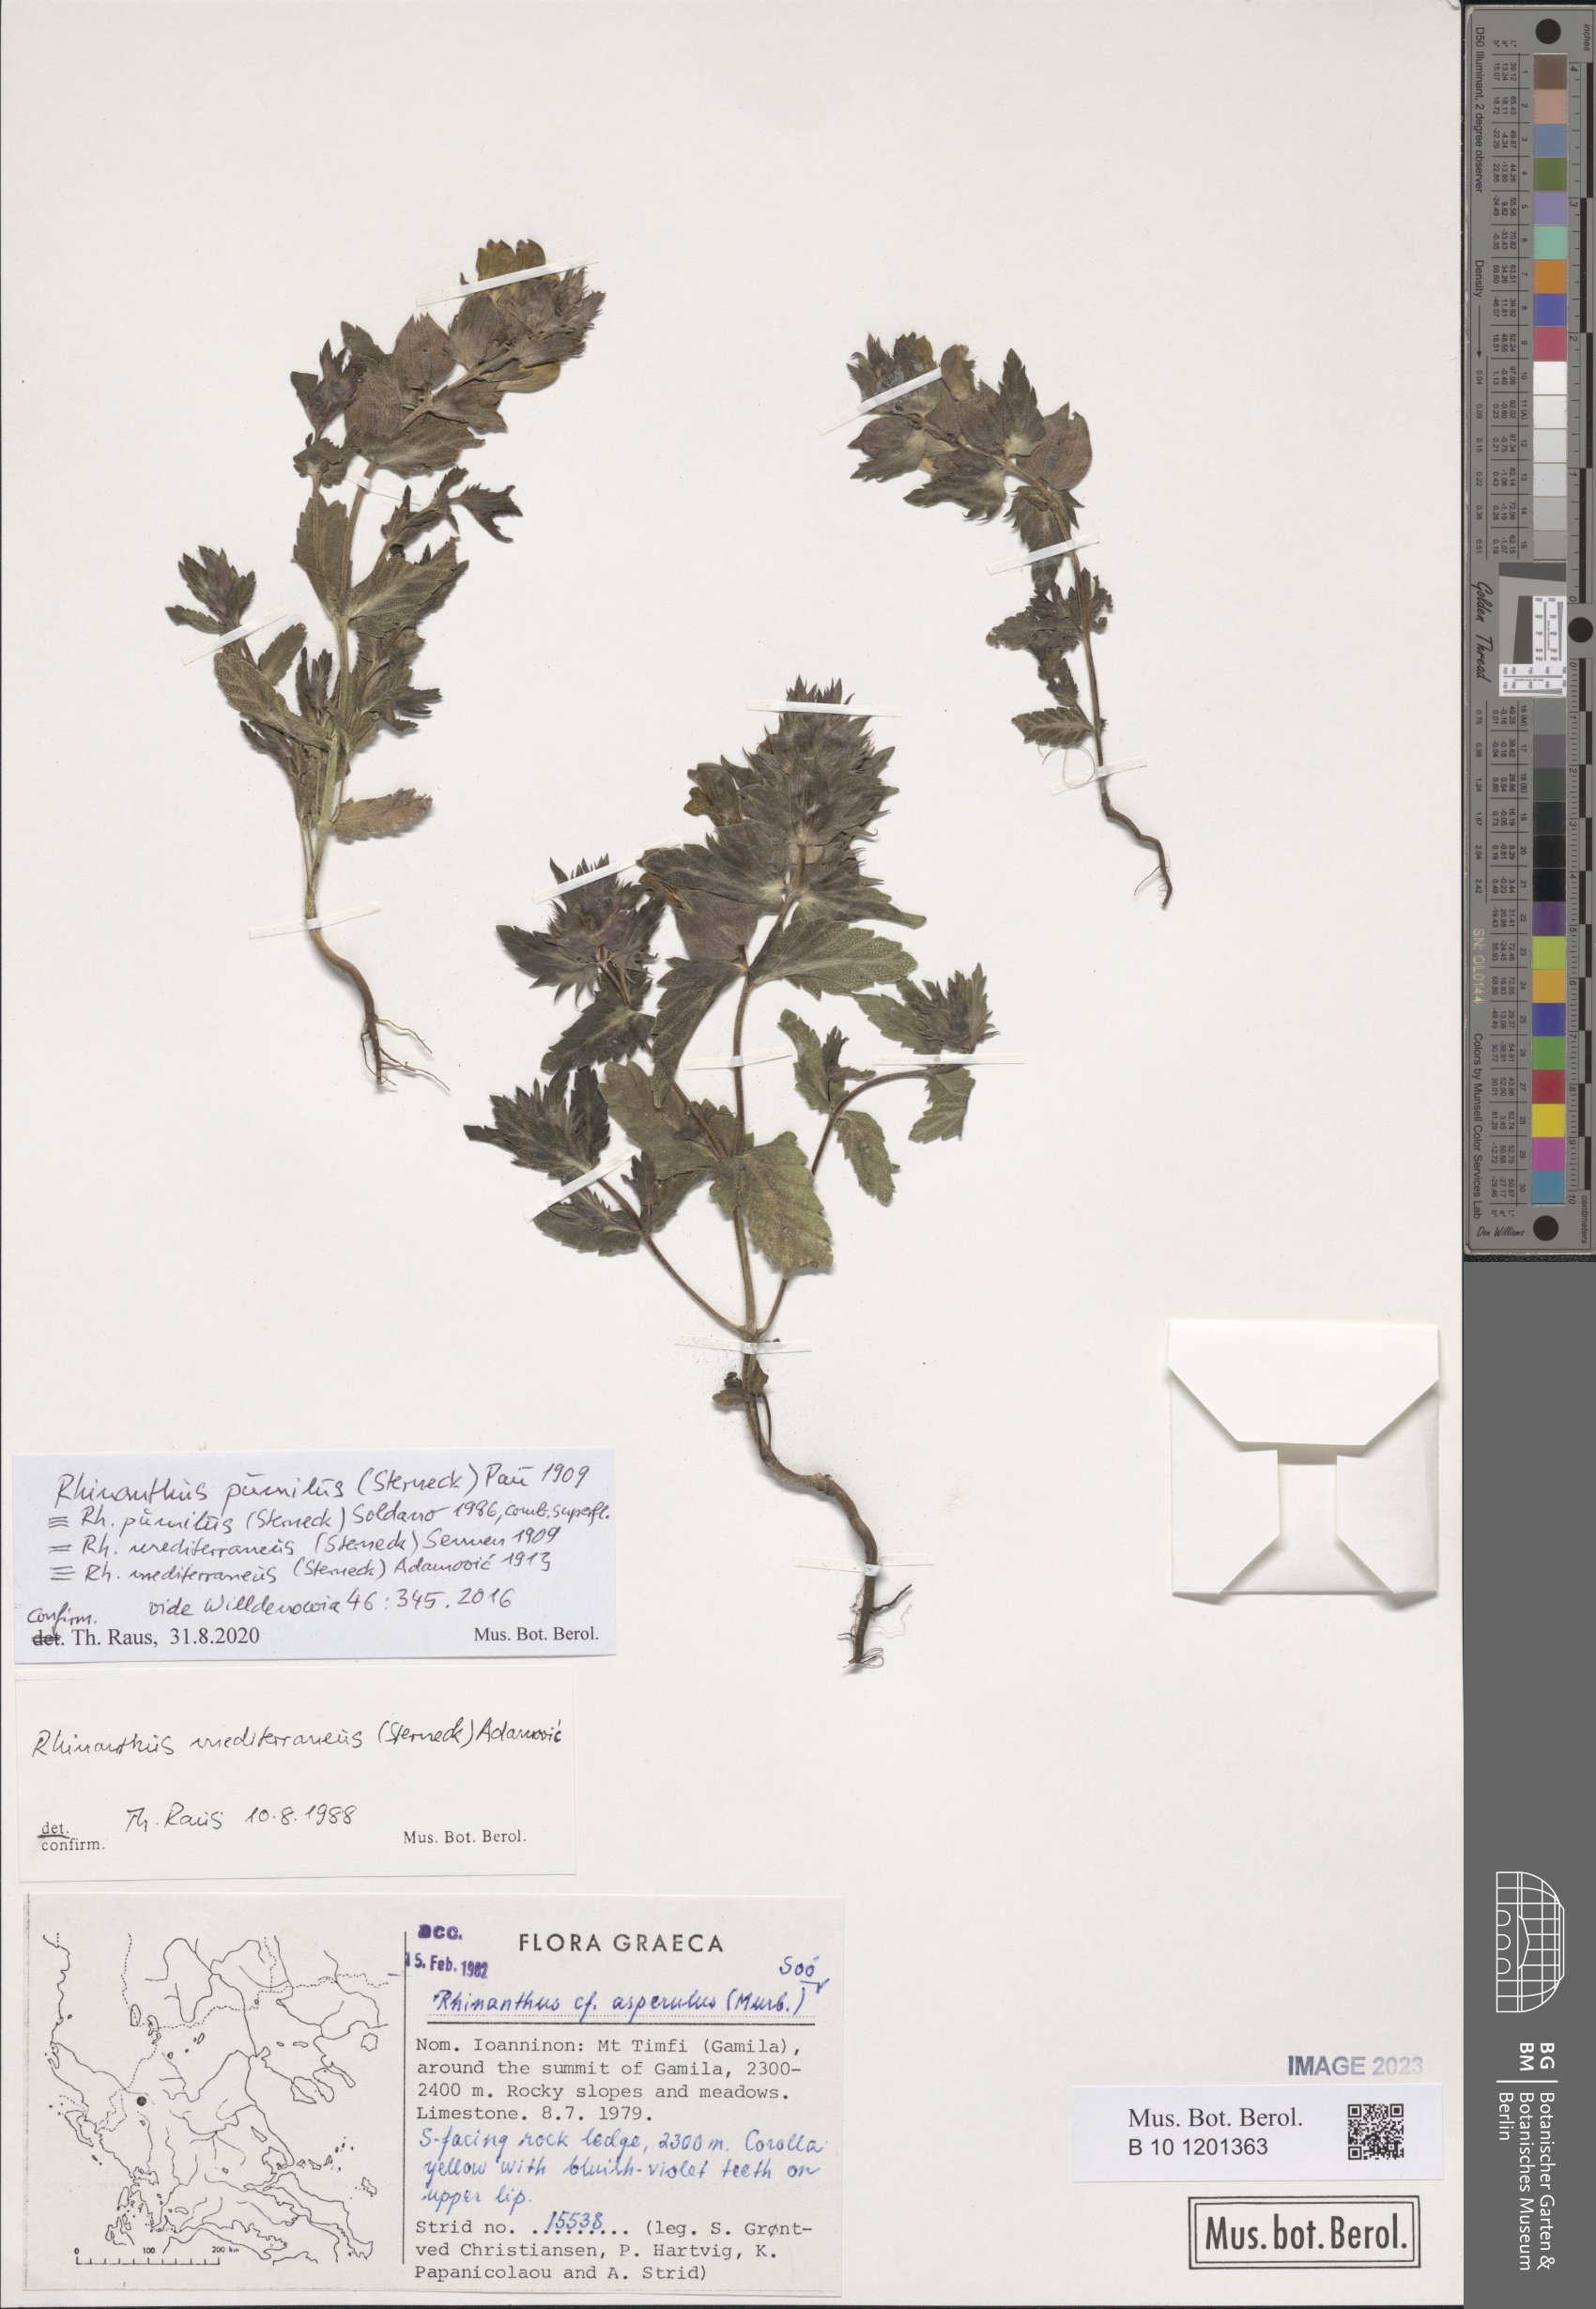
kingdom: Plantae
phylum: Tracheophyta
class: Magnoliopsida
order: Lamiales
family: Orobanchaceae
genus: Rhinanthus
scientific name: Rhinanthus pumilus
